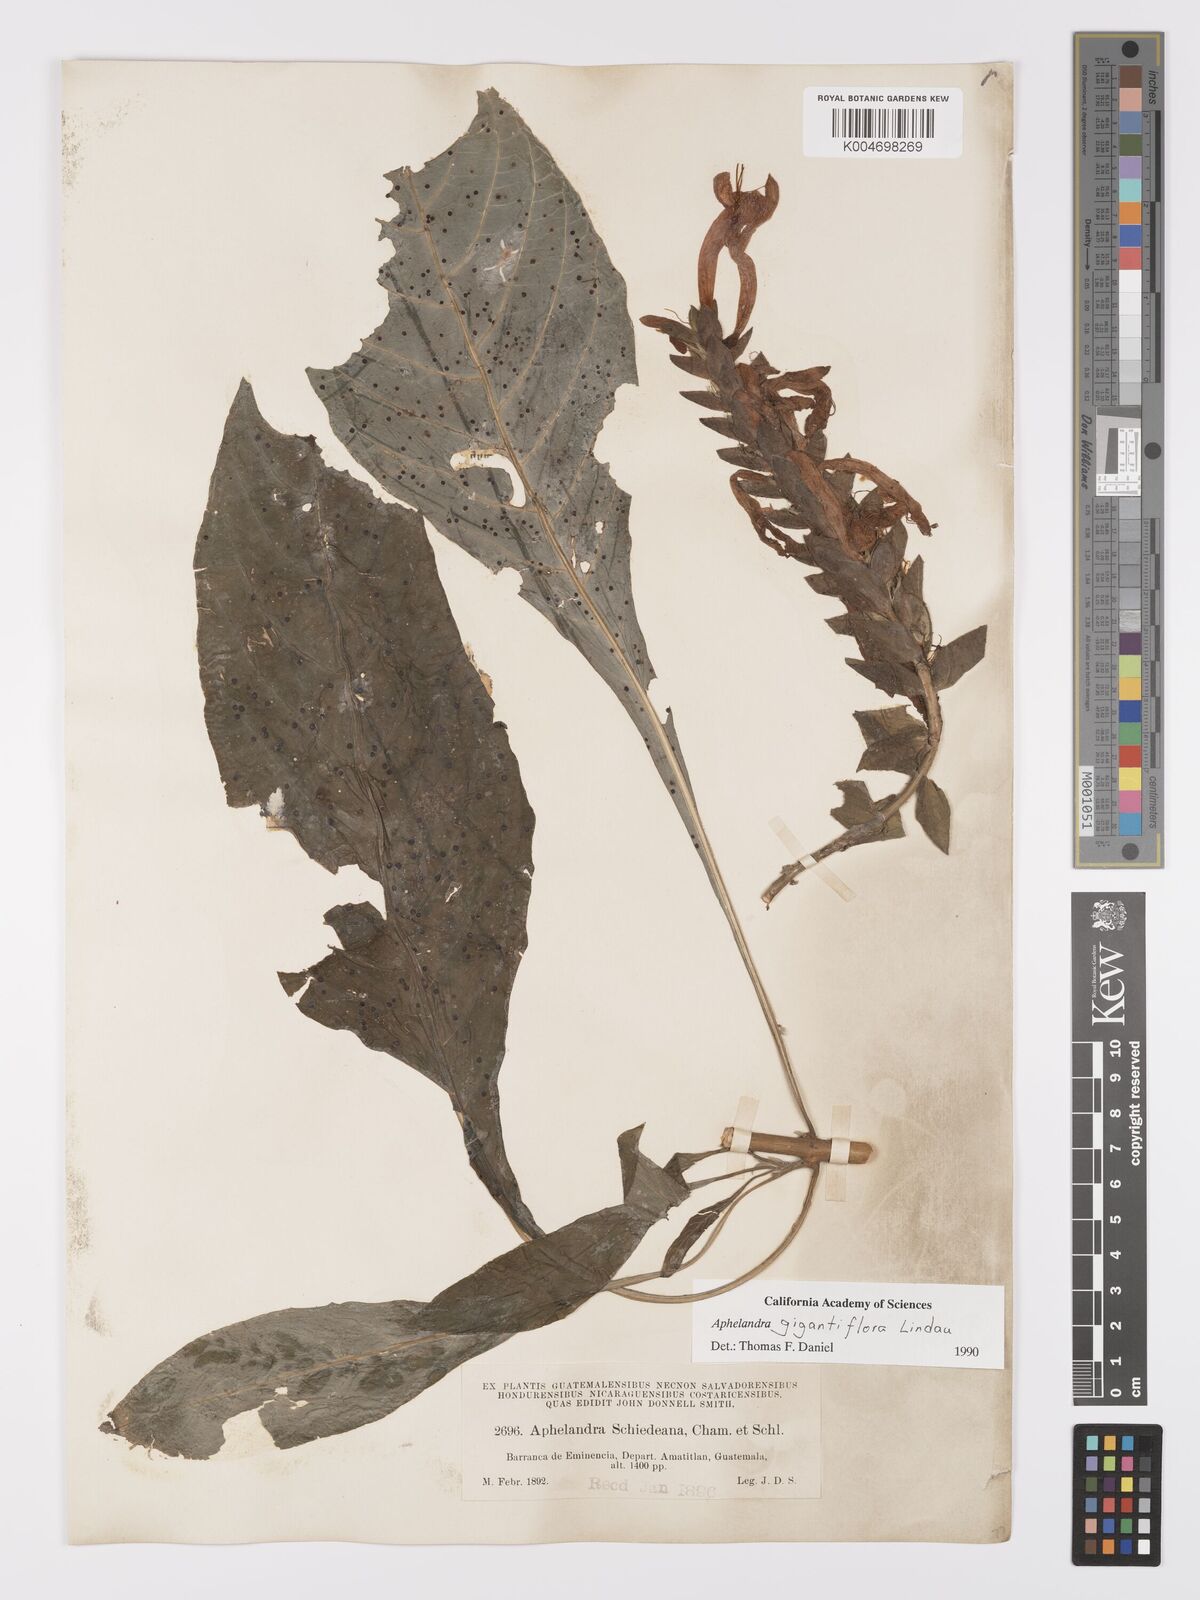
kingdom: Plantae
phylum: Tracheophyta
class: Magnoliopsida
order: Lamiales
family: Acanthaceae
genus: Aphelandra
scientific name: Aphelandra gigantiflora
